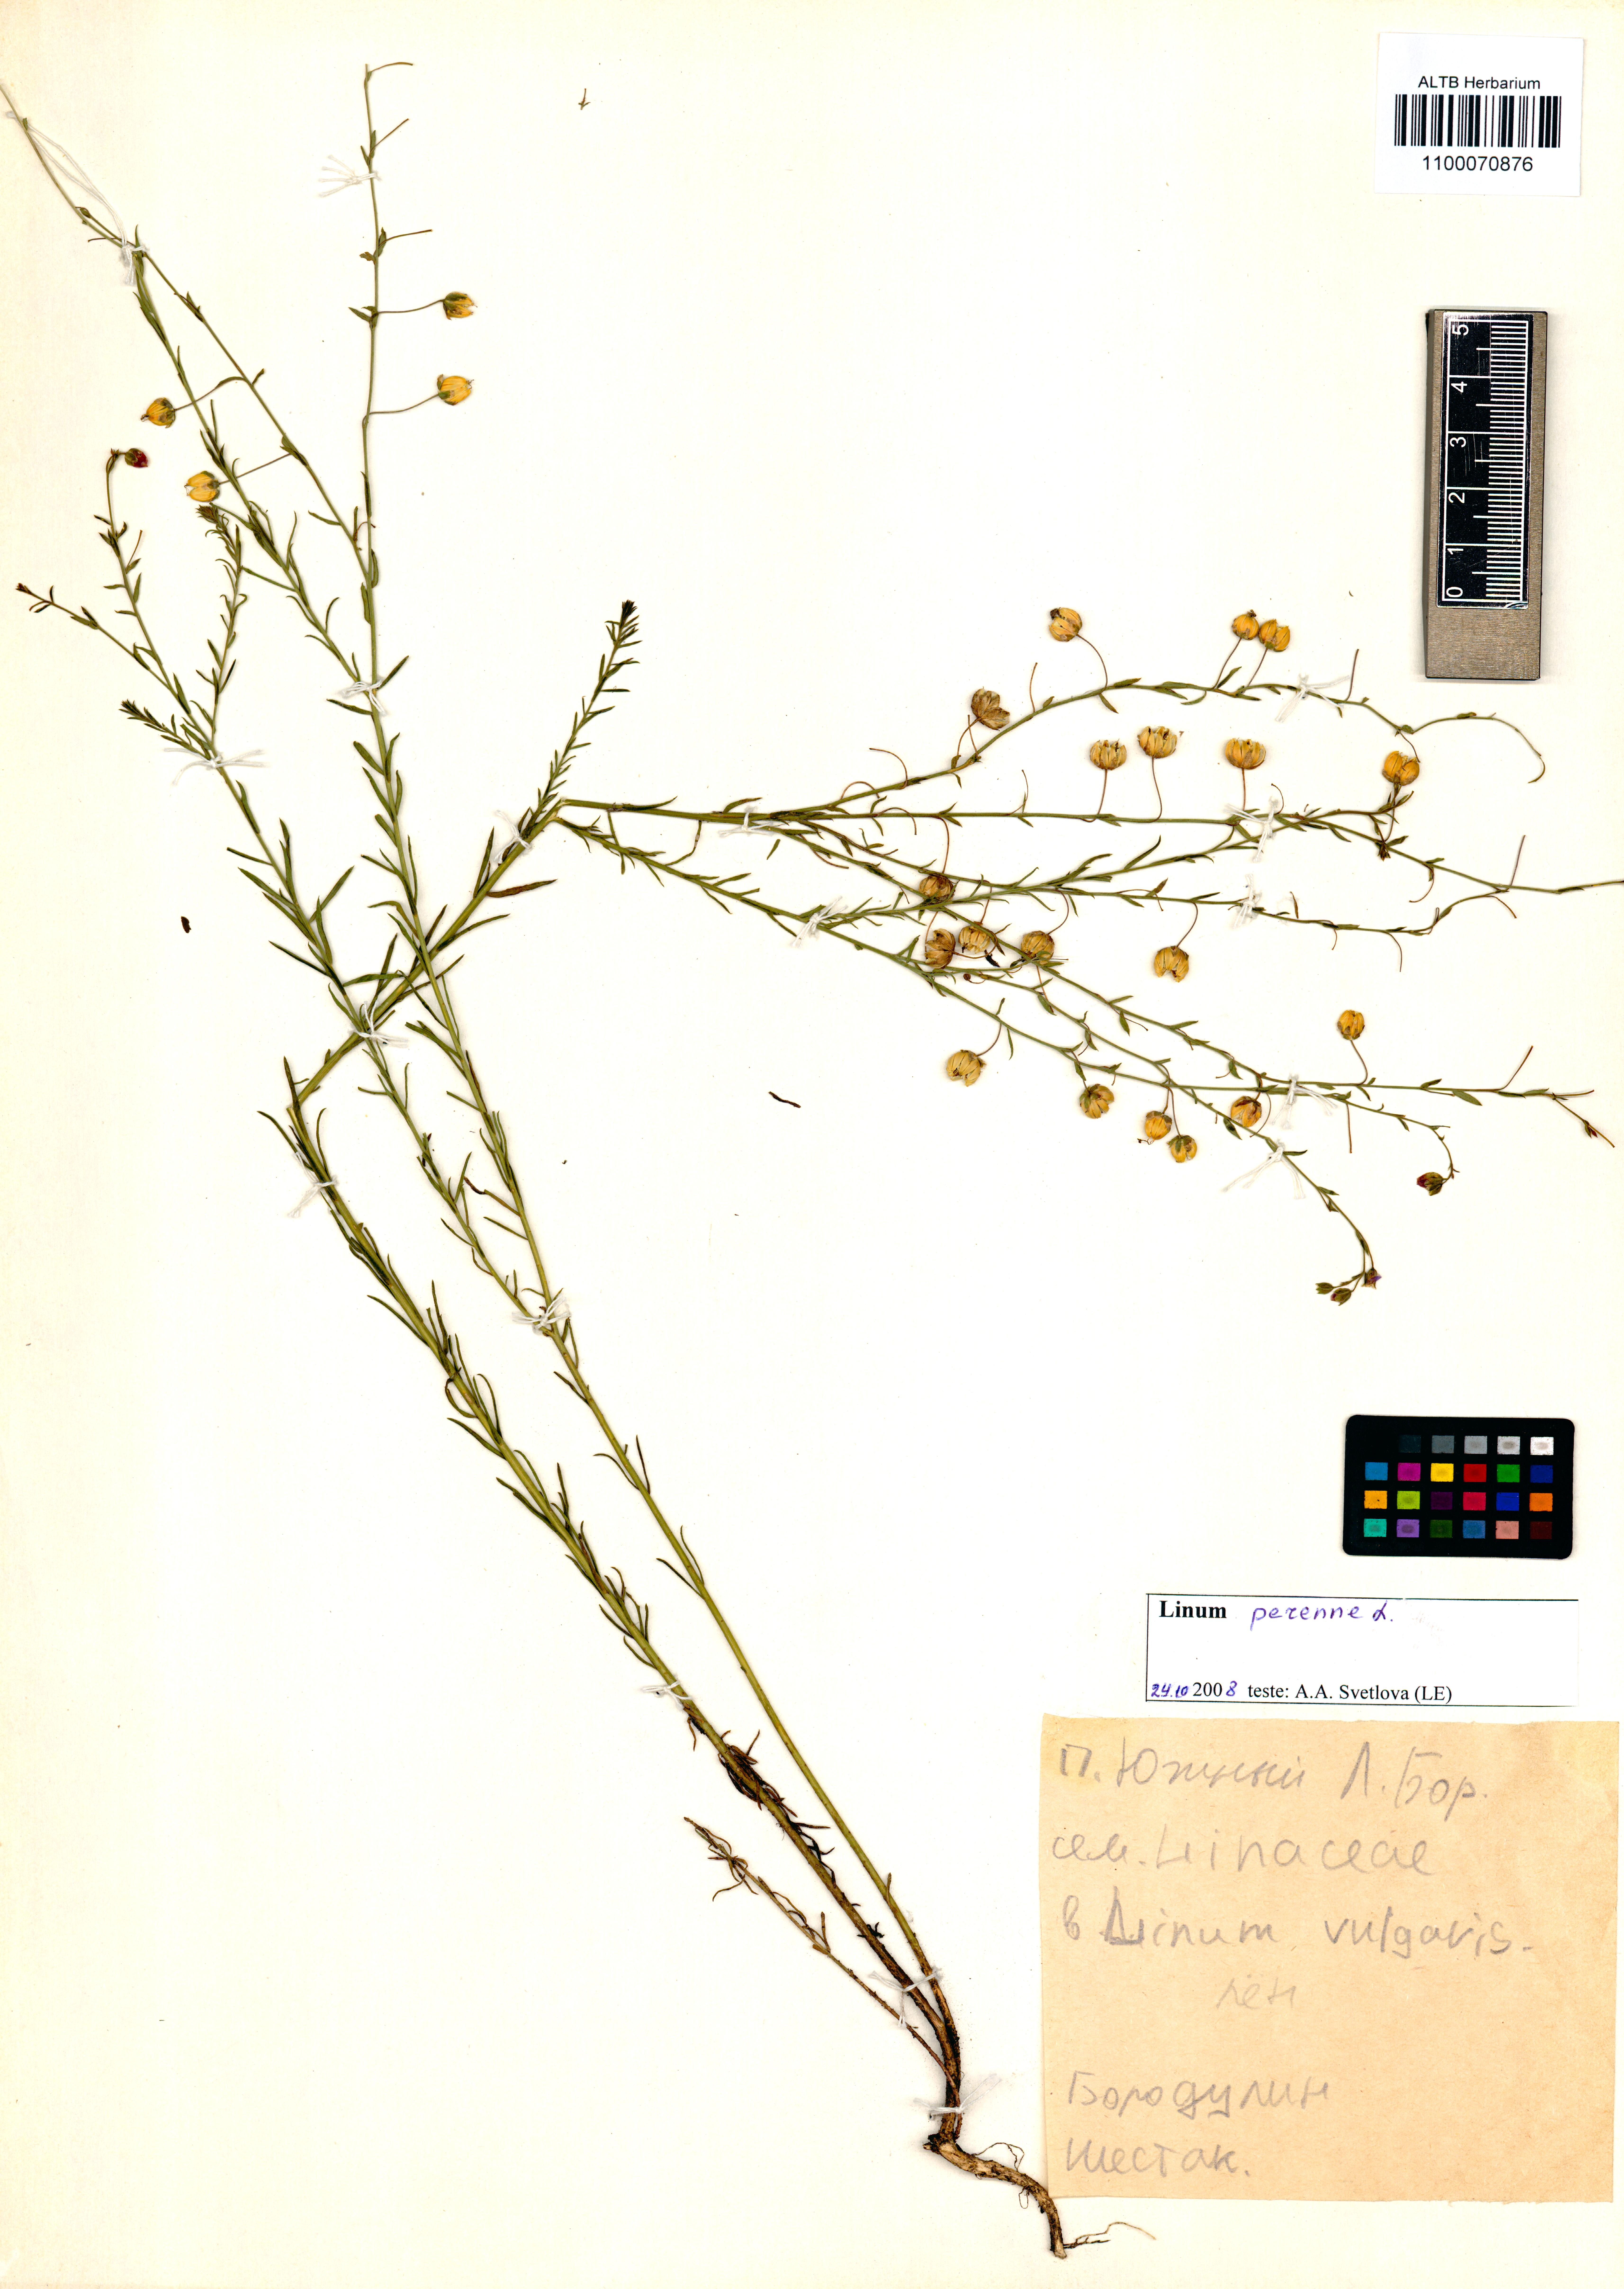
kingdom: Plantae
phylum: Tracheophyta
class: Magnoliopsida
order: Malpighiales
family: Linaceae
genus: Linum
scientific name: Linum perenne
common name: Blue flax
